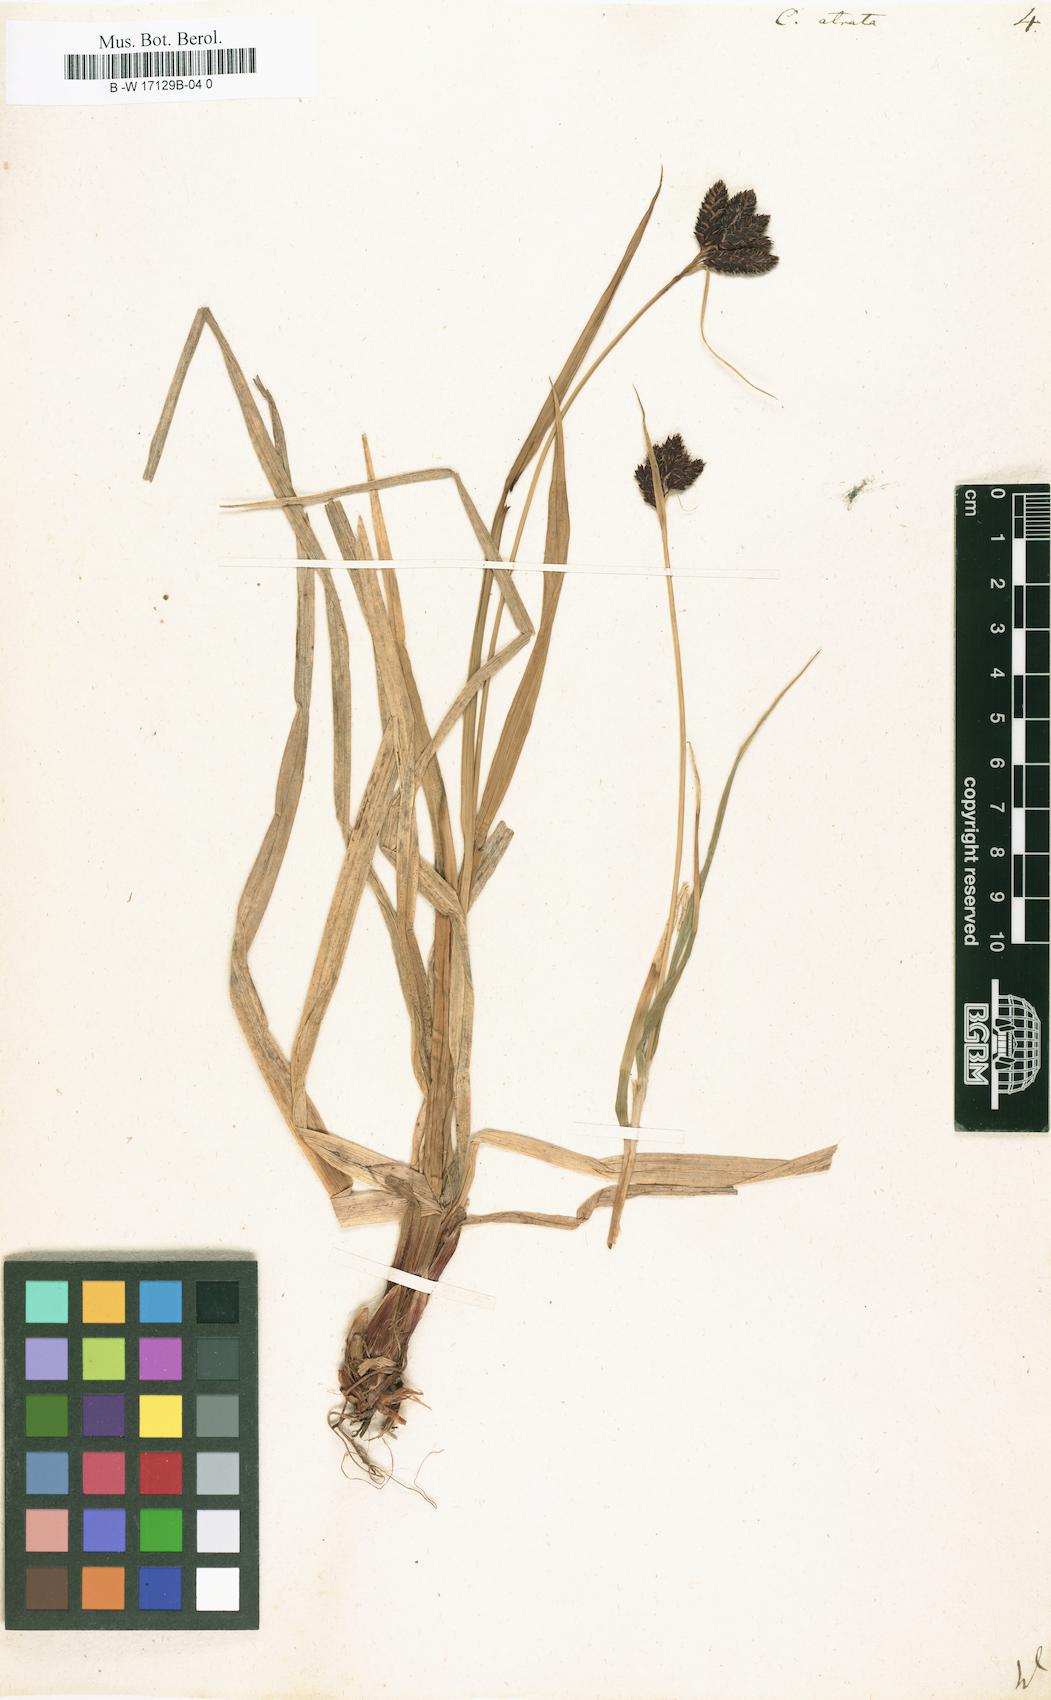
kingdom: Plantae
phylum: Tracheophyta
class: Liliopsida
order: Poales
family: Cyperaceae
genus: Carex
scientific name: Carex atrata
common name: Black alpine sedge
